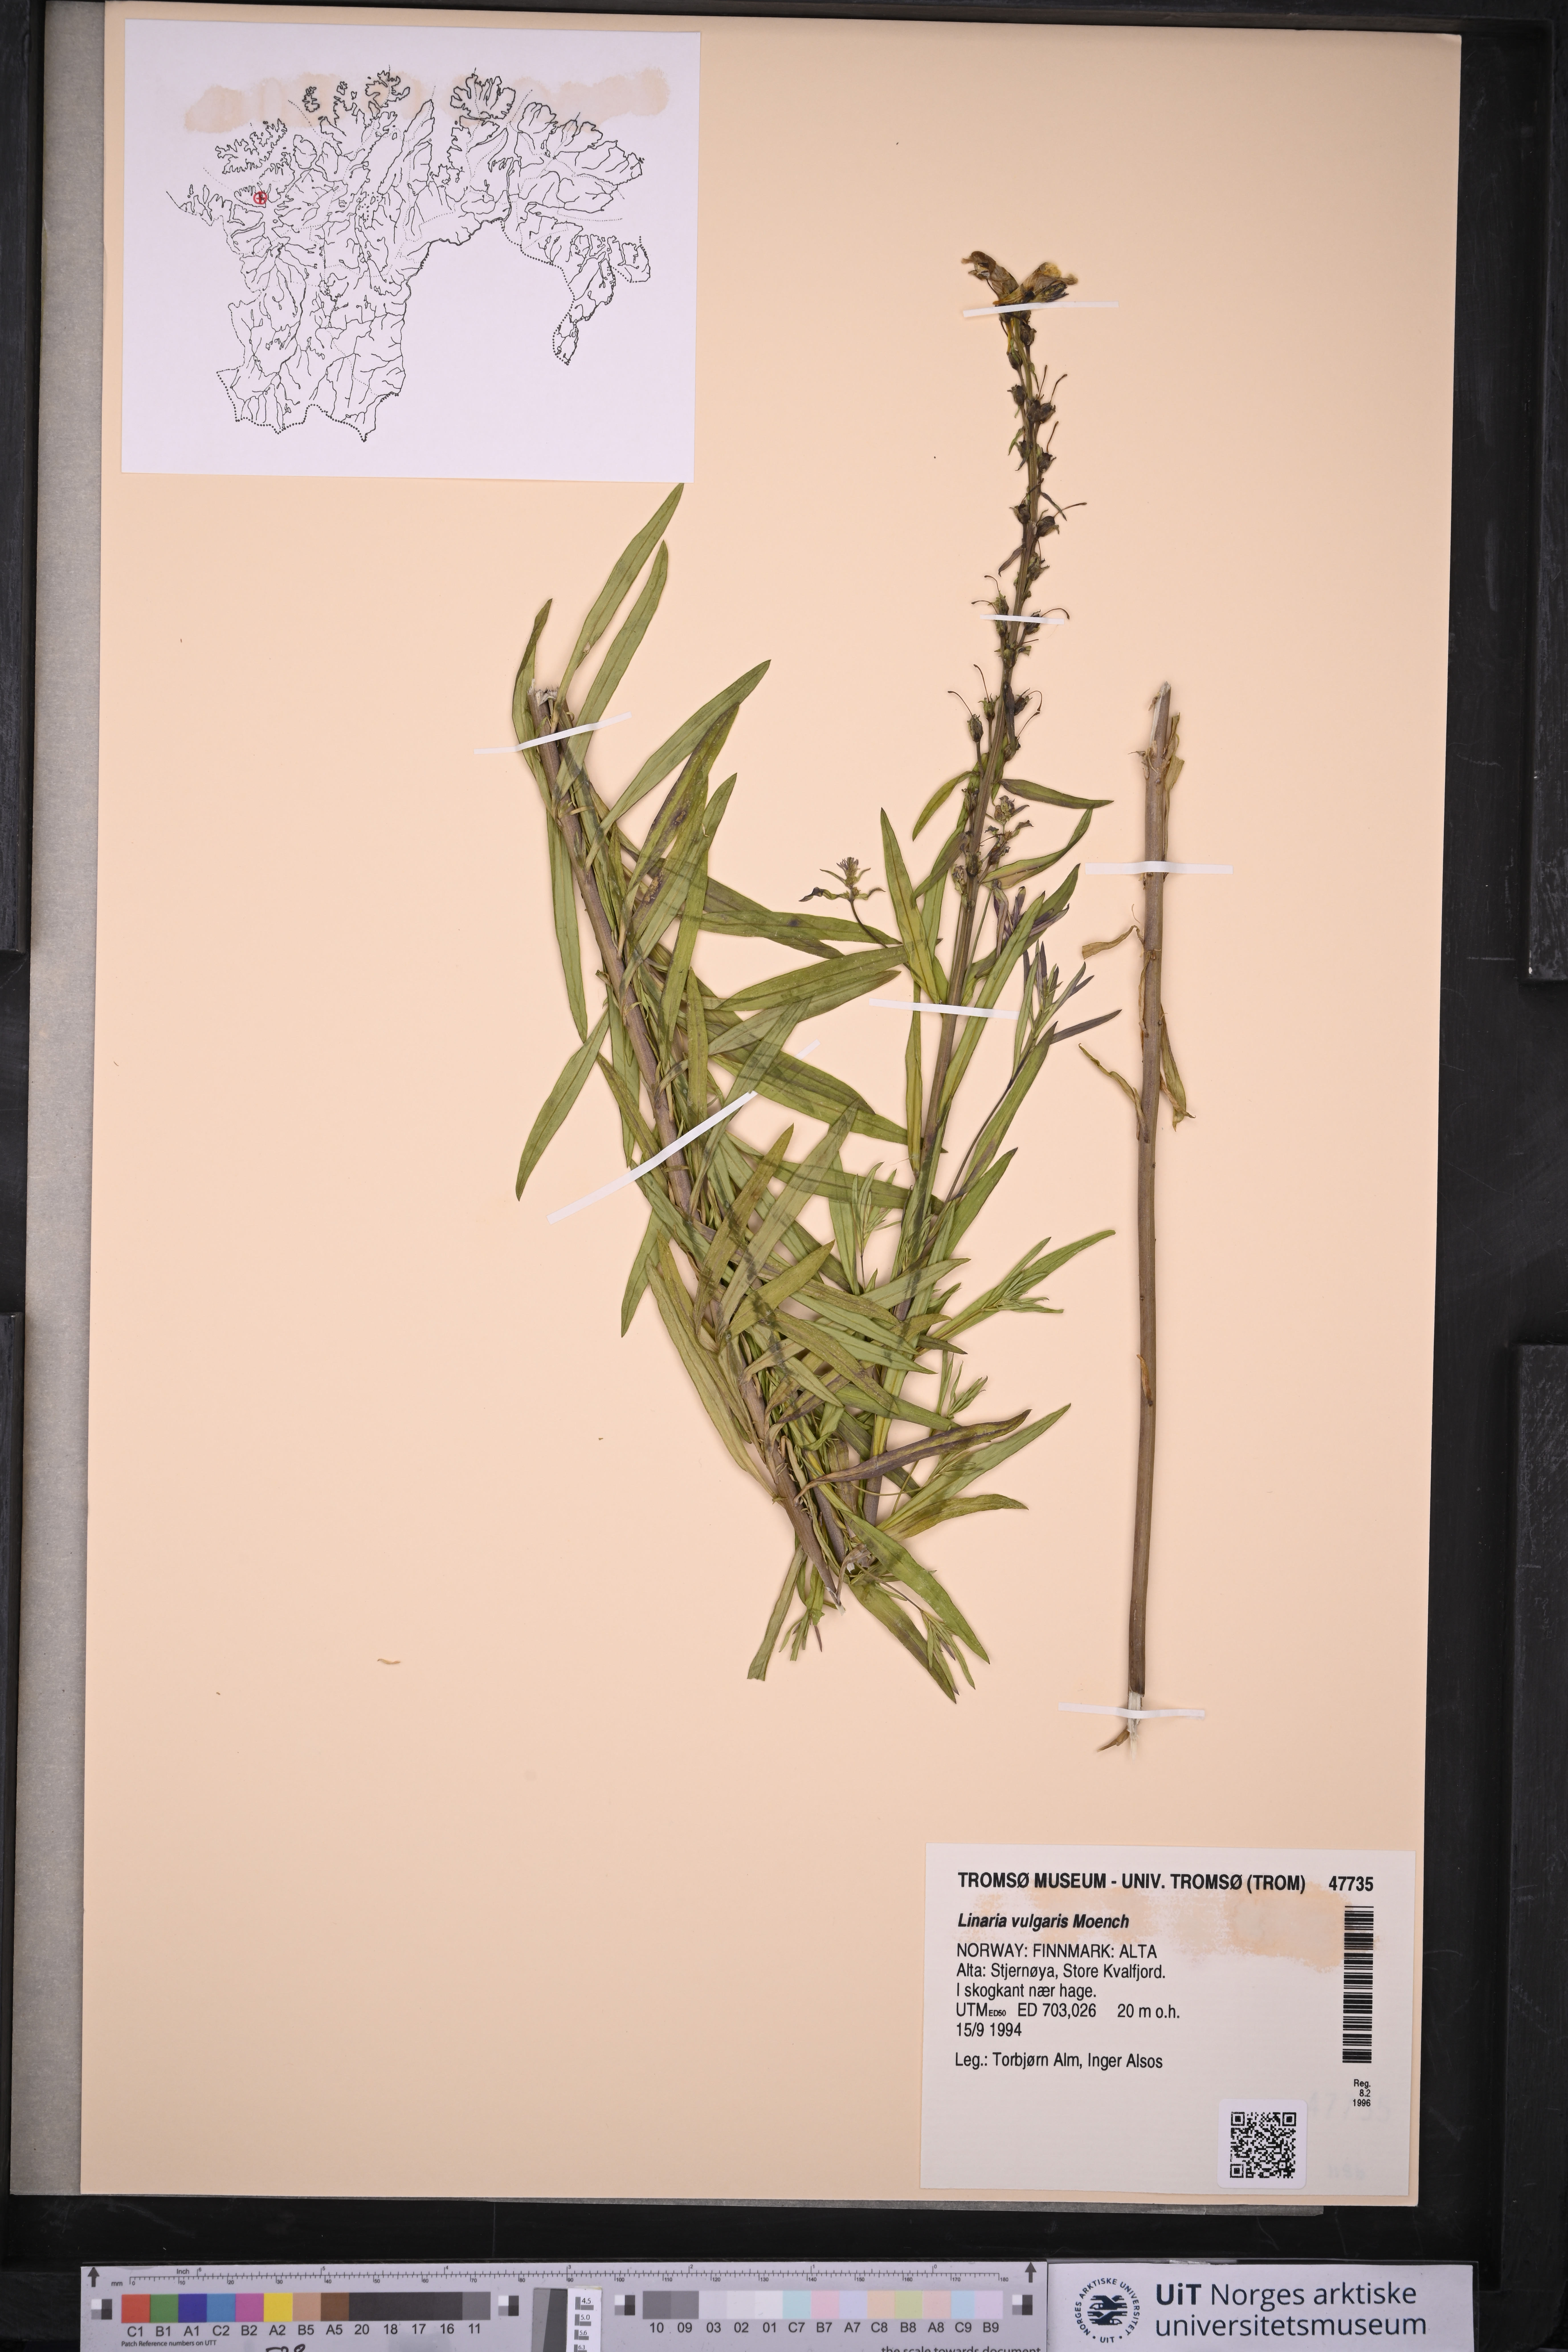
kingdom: Plantae
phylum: Tracheophyta
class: Magnoliopsida
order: Lamiales
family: Plantaginaceae
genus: Linaria
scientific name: Linaria vulgaris
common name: Butter and eggs
